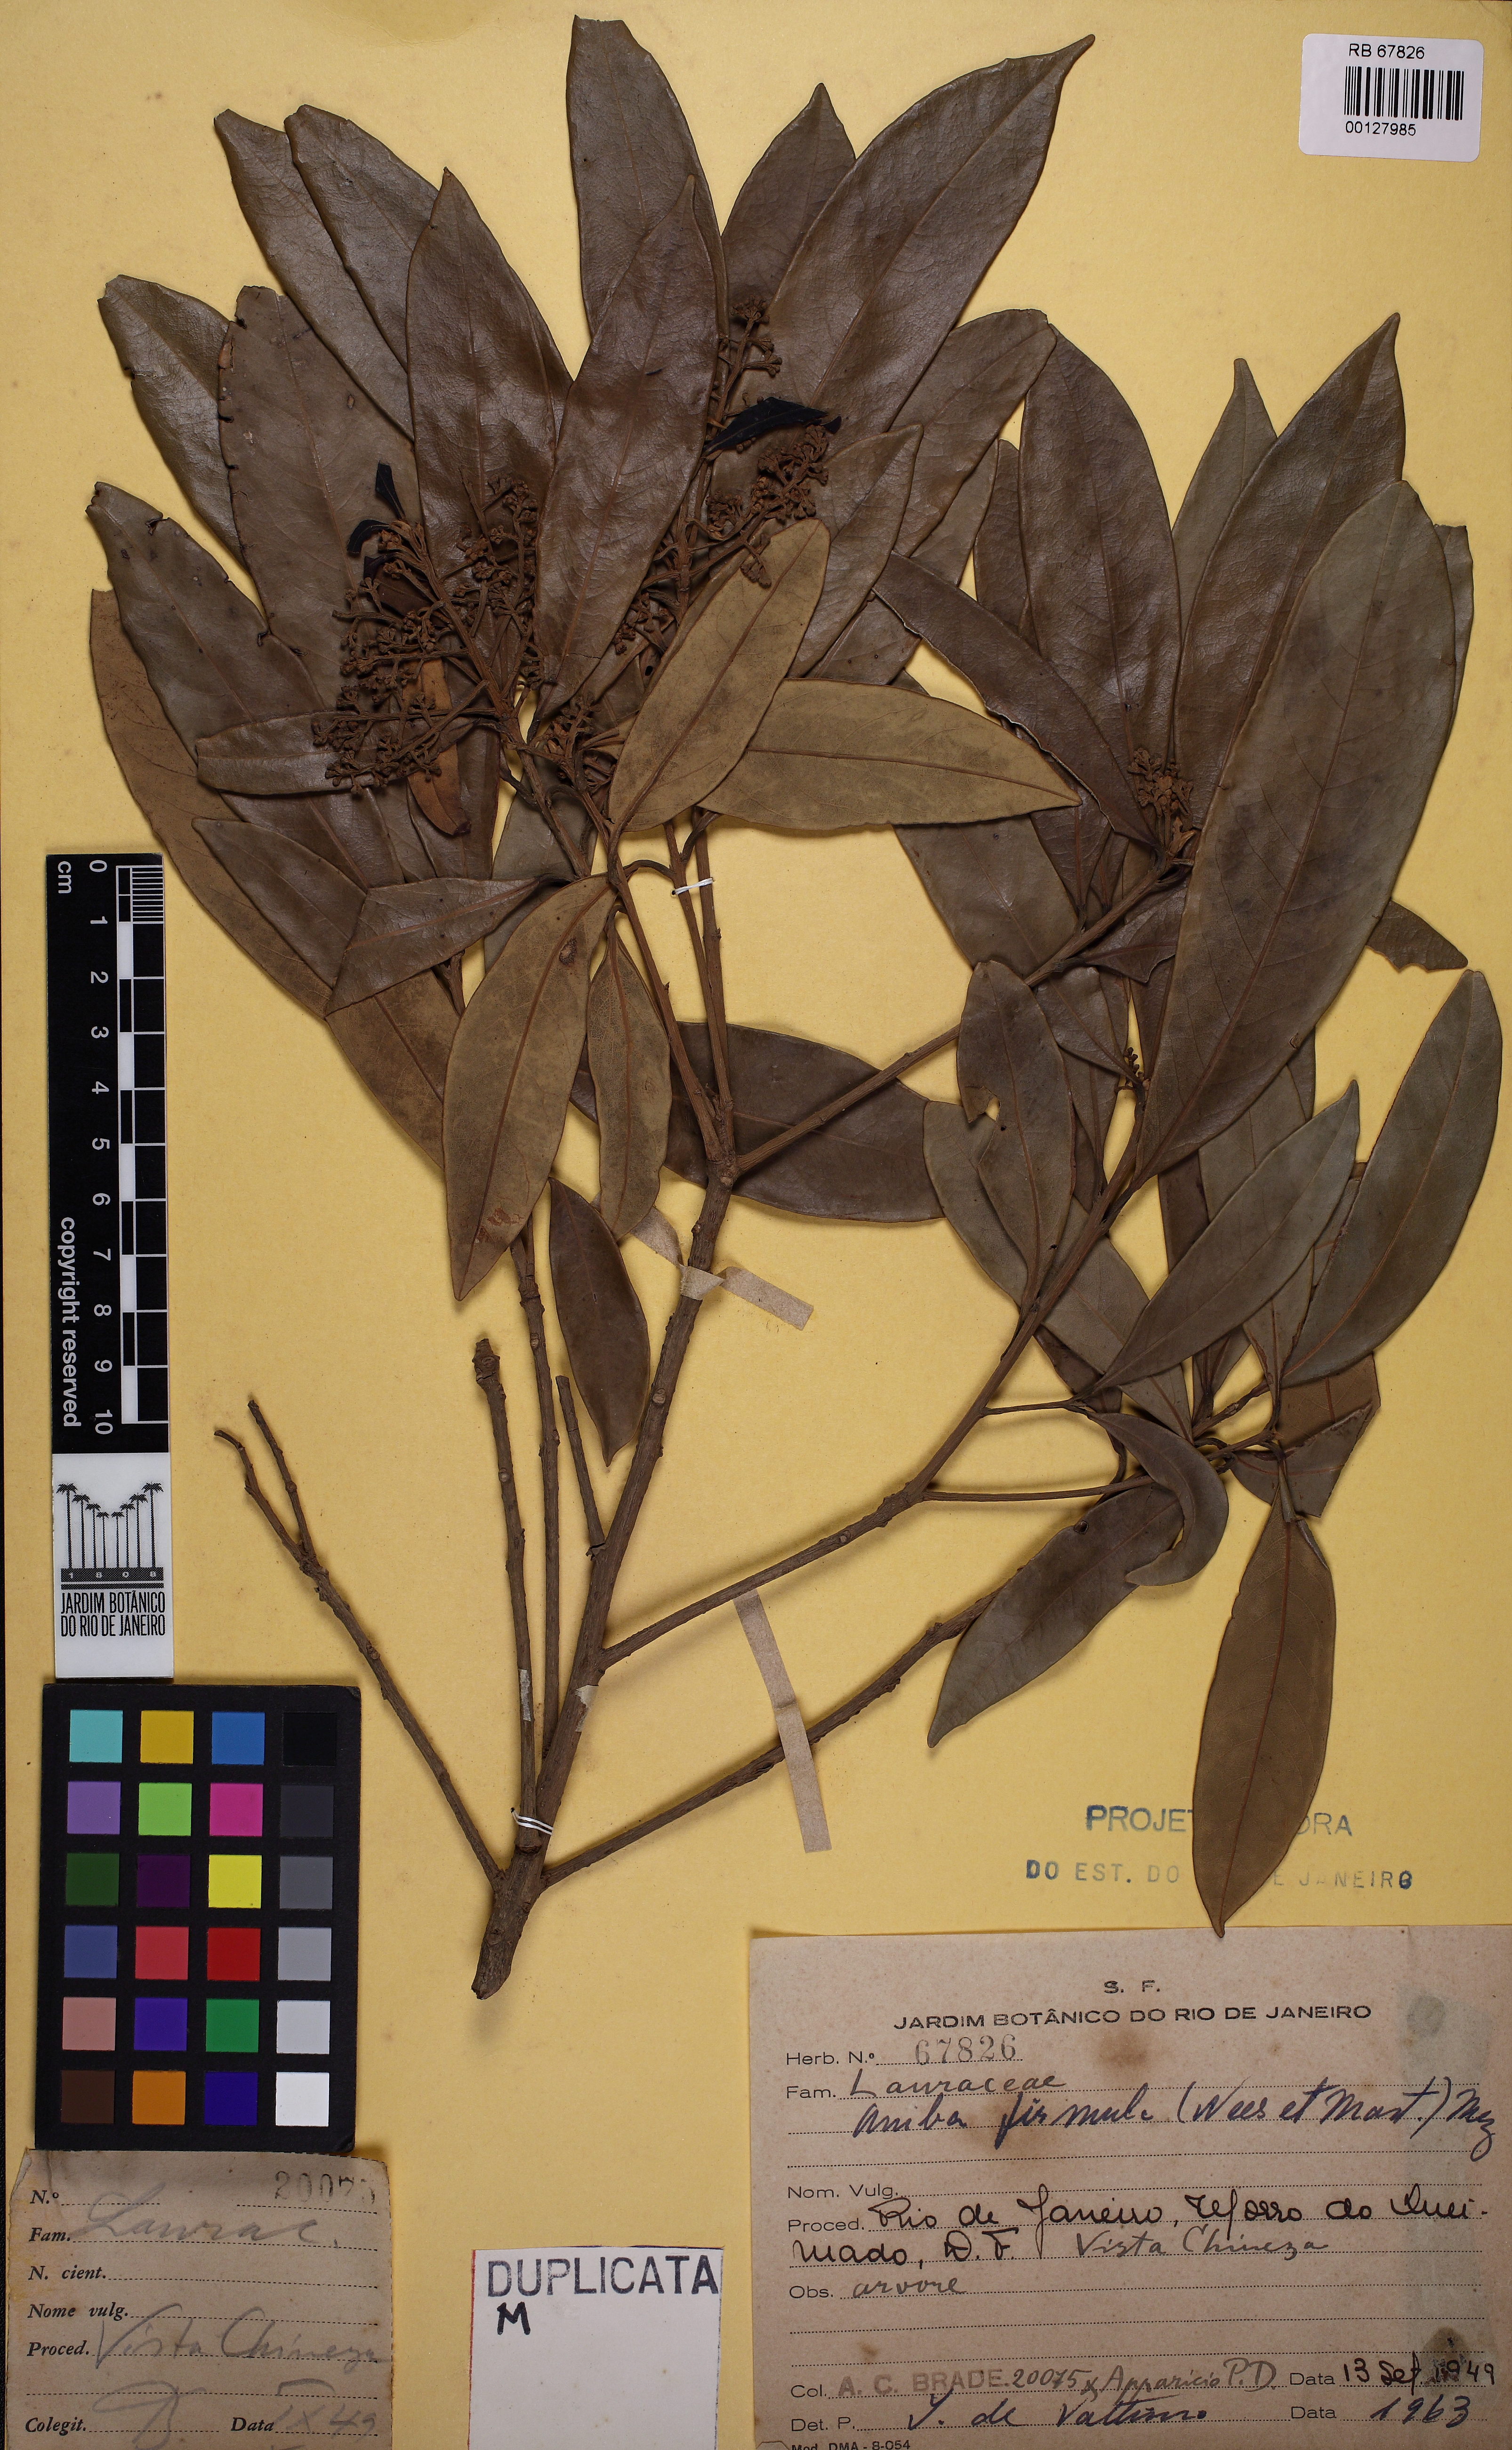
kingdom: Plantae
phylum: Tracheophyta
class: Magnoliopsida
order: Laurales
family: Lauraceae
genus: Aniba
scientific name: Aniba firmula
